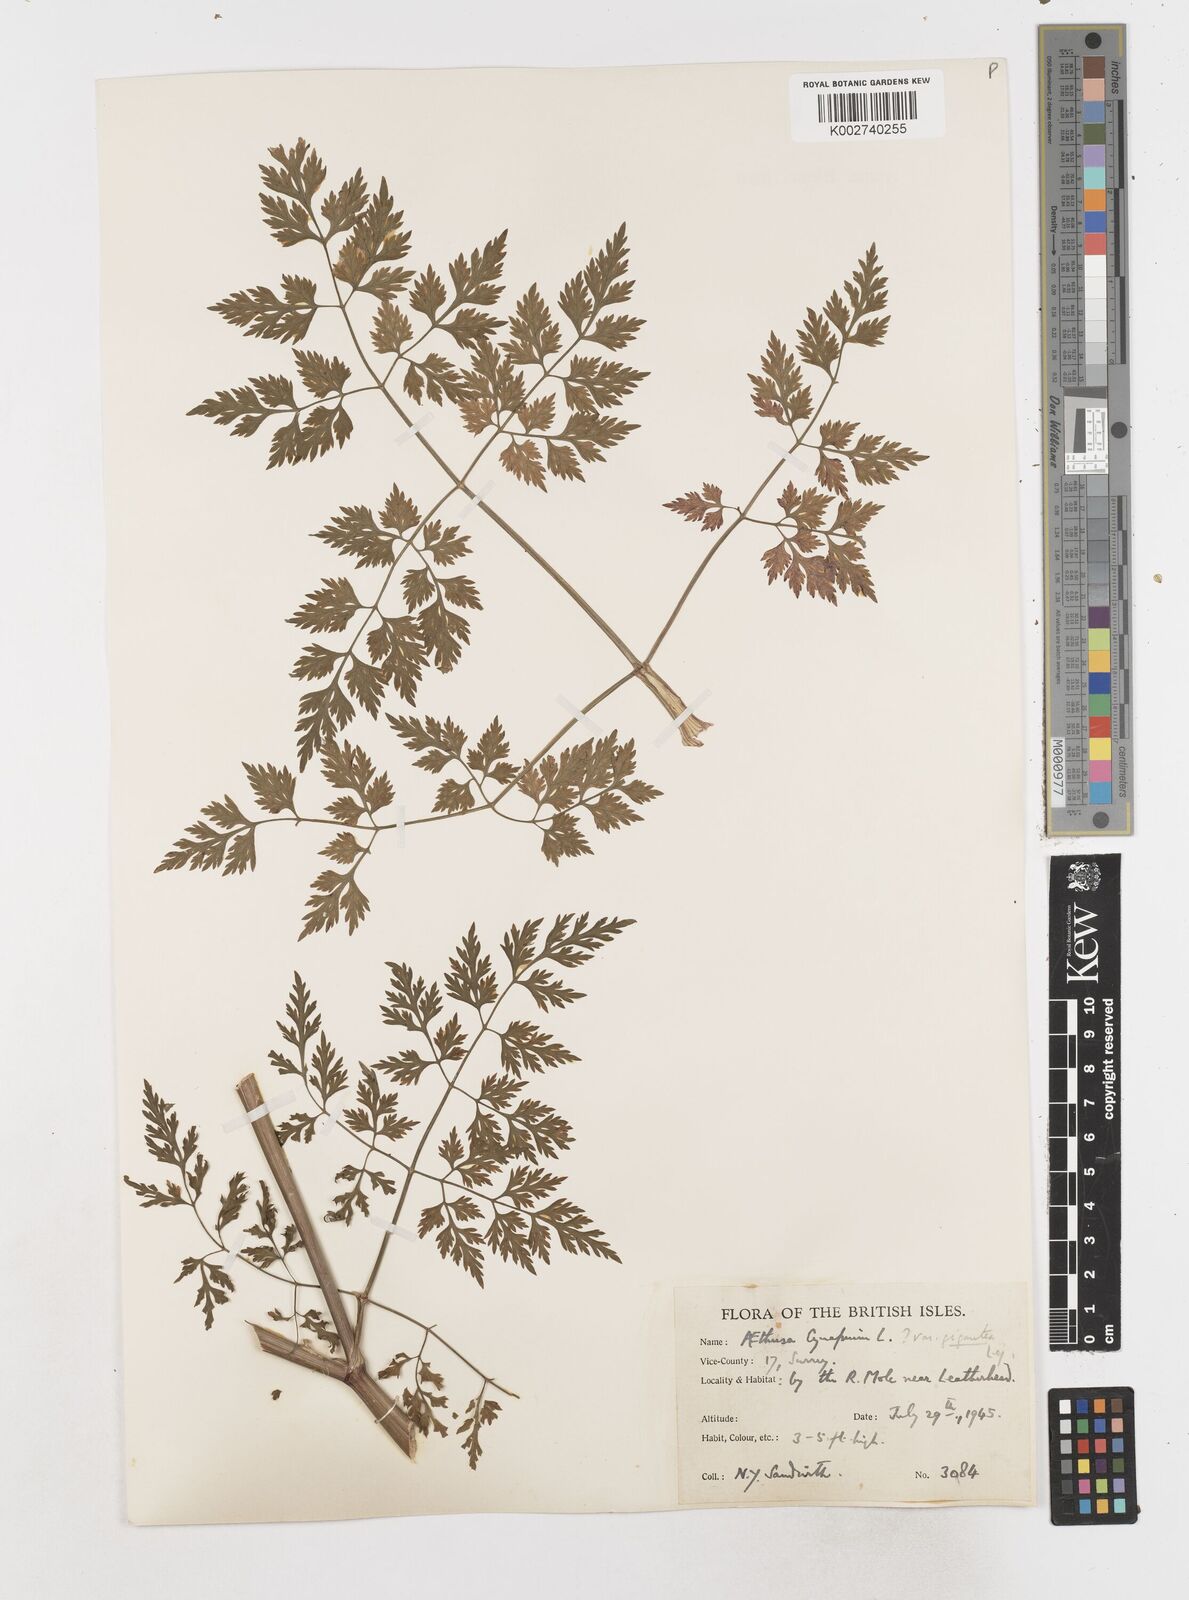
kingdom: Plantae
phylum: Tracheophyta
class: Magnoliopsida
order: Apiales
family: Apiaceae
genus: Aethusa
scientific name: Aethusa cynapium
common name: Fool's parsley
